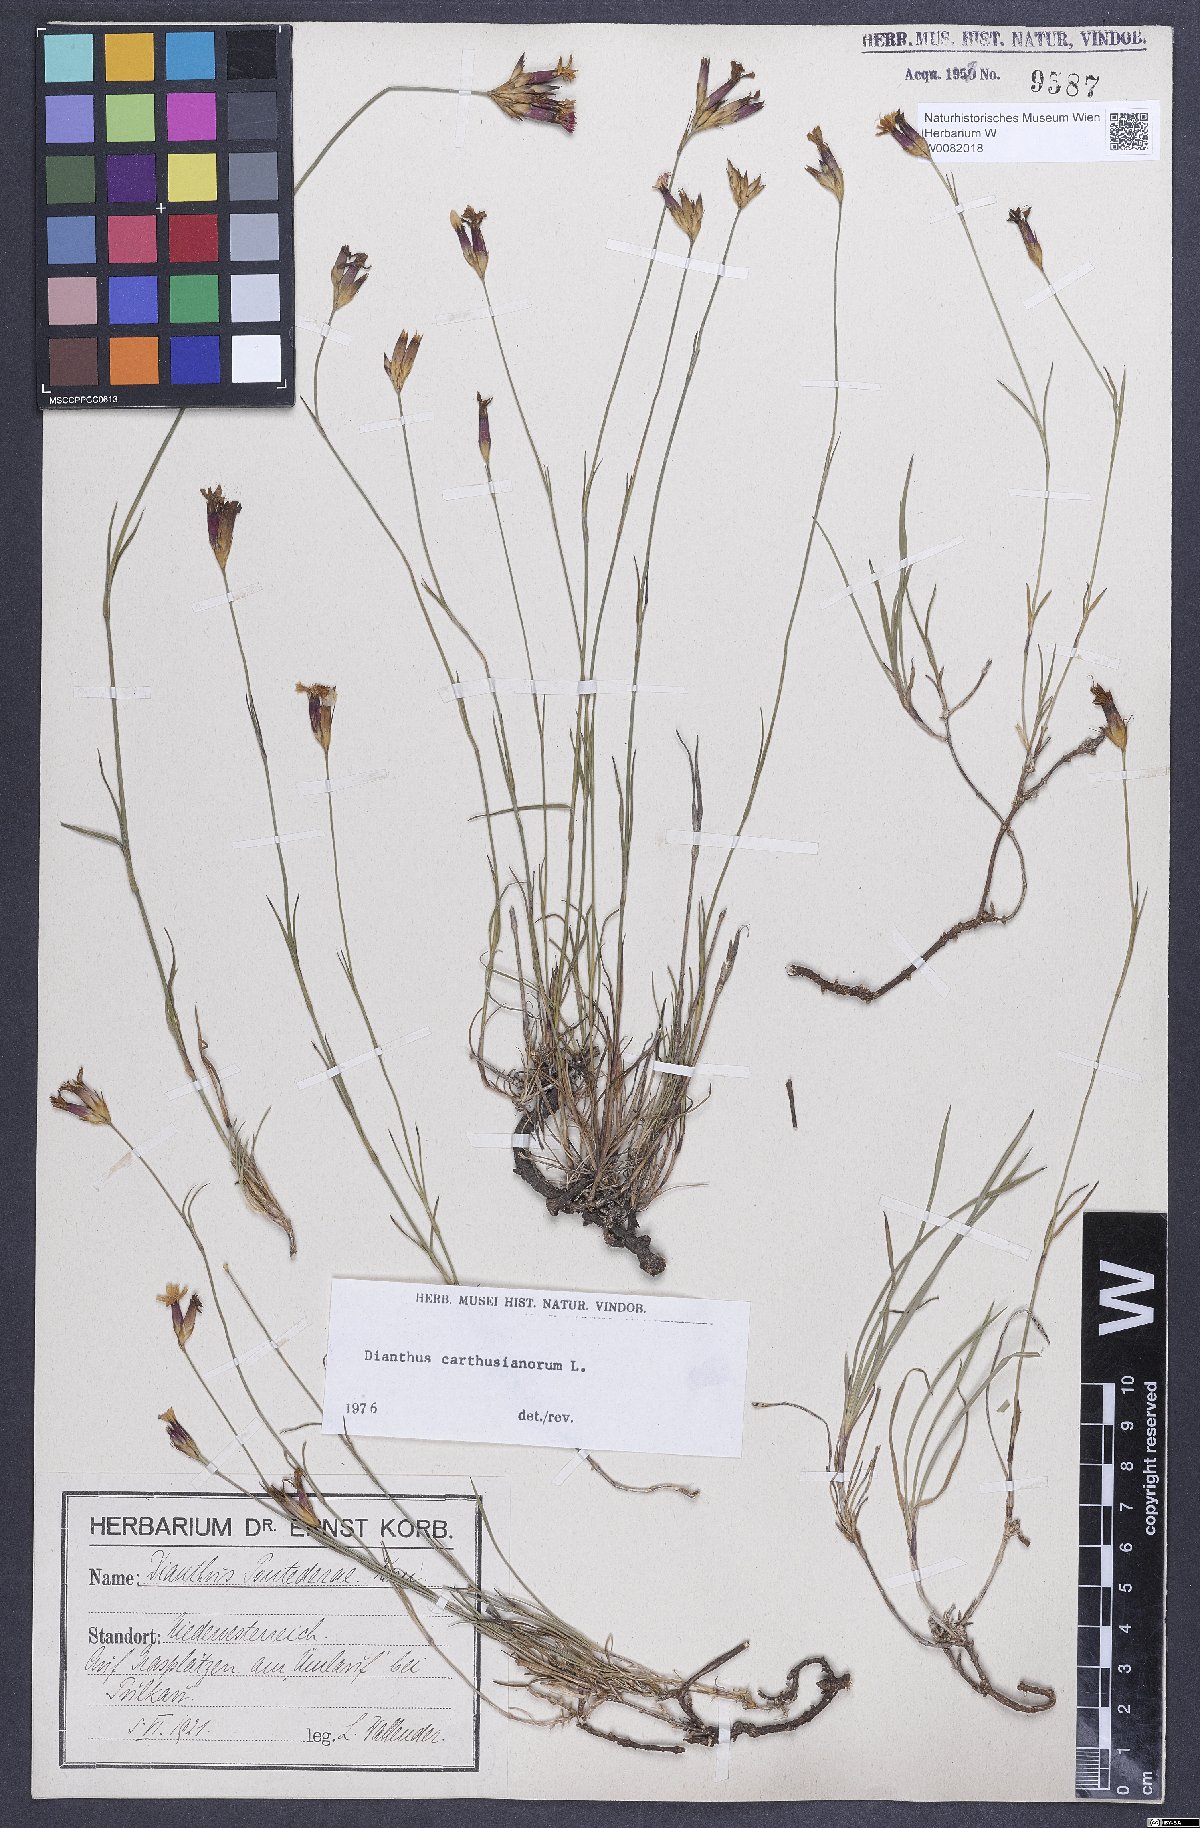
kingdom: Plantae
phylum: Tracheophyta
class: Magnoliopsida
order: Caryophyllales
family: Caryophyllaceae
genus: Dianthus
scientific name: Dianthus carthusianorum
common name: Carthusian pink
